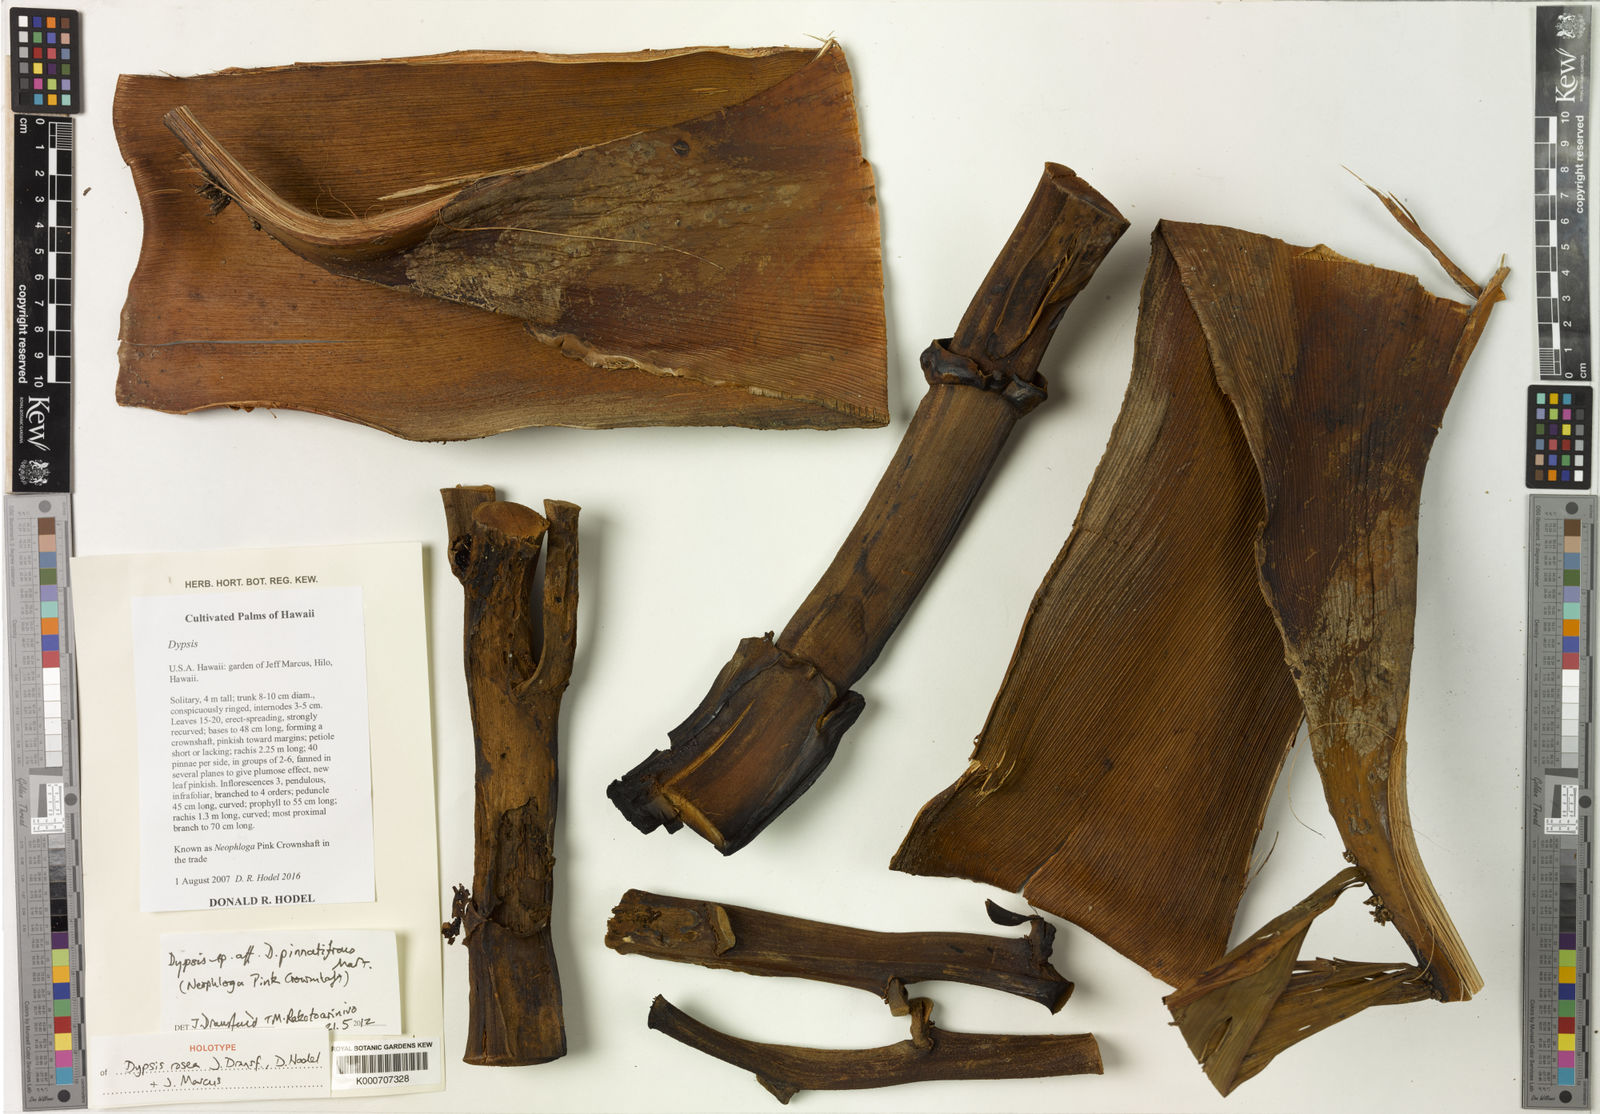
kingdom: Plantae
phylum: Tracheophyta
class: Liliopsida
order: Arecales
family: Arecaceae
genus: Dypsis
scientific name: Dypsis
